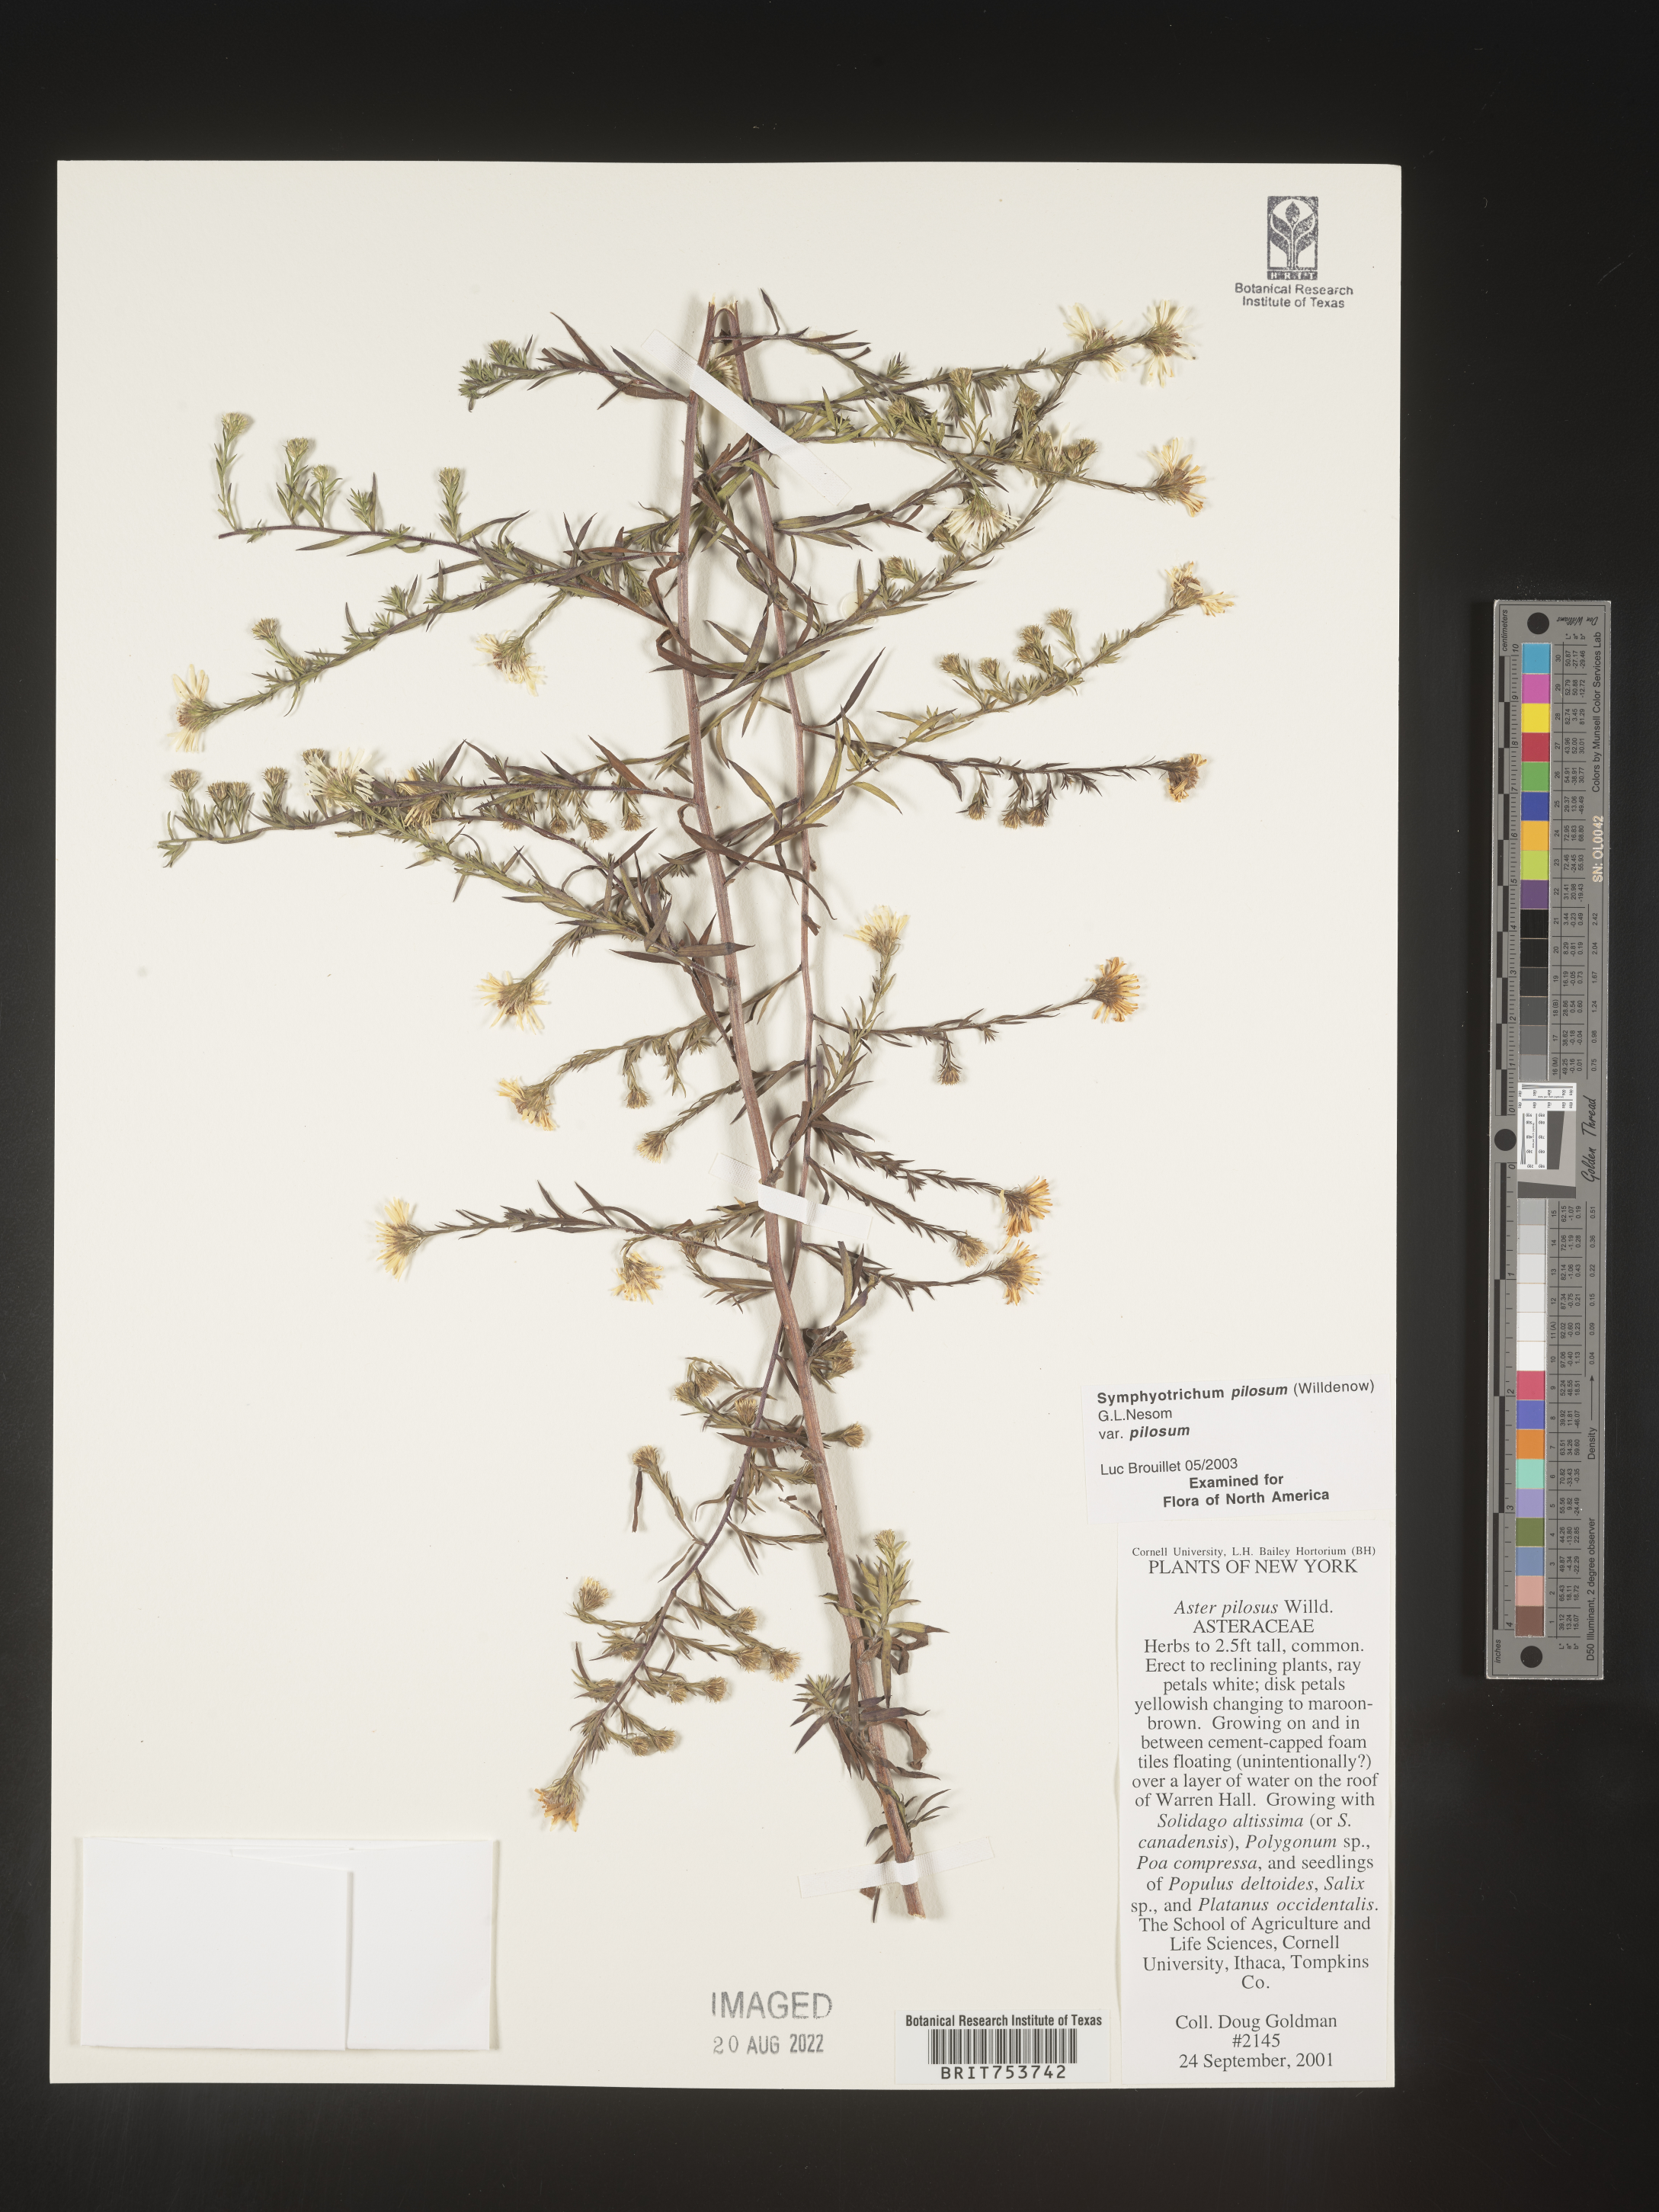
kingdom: Plantae
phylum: Tracheophyta
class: Magnoliopsida
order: Asterales
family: Asteraceae
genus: Symphyotrichum
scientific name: Symphyotrichum pilosum
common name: Awl aster
